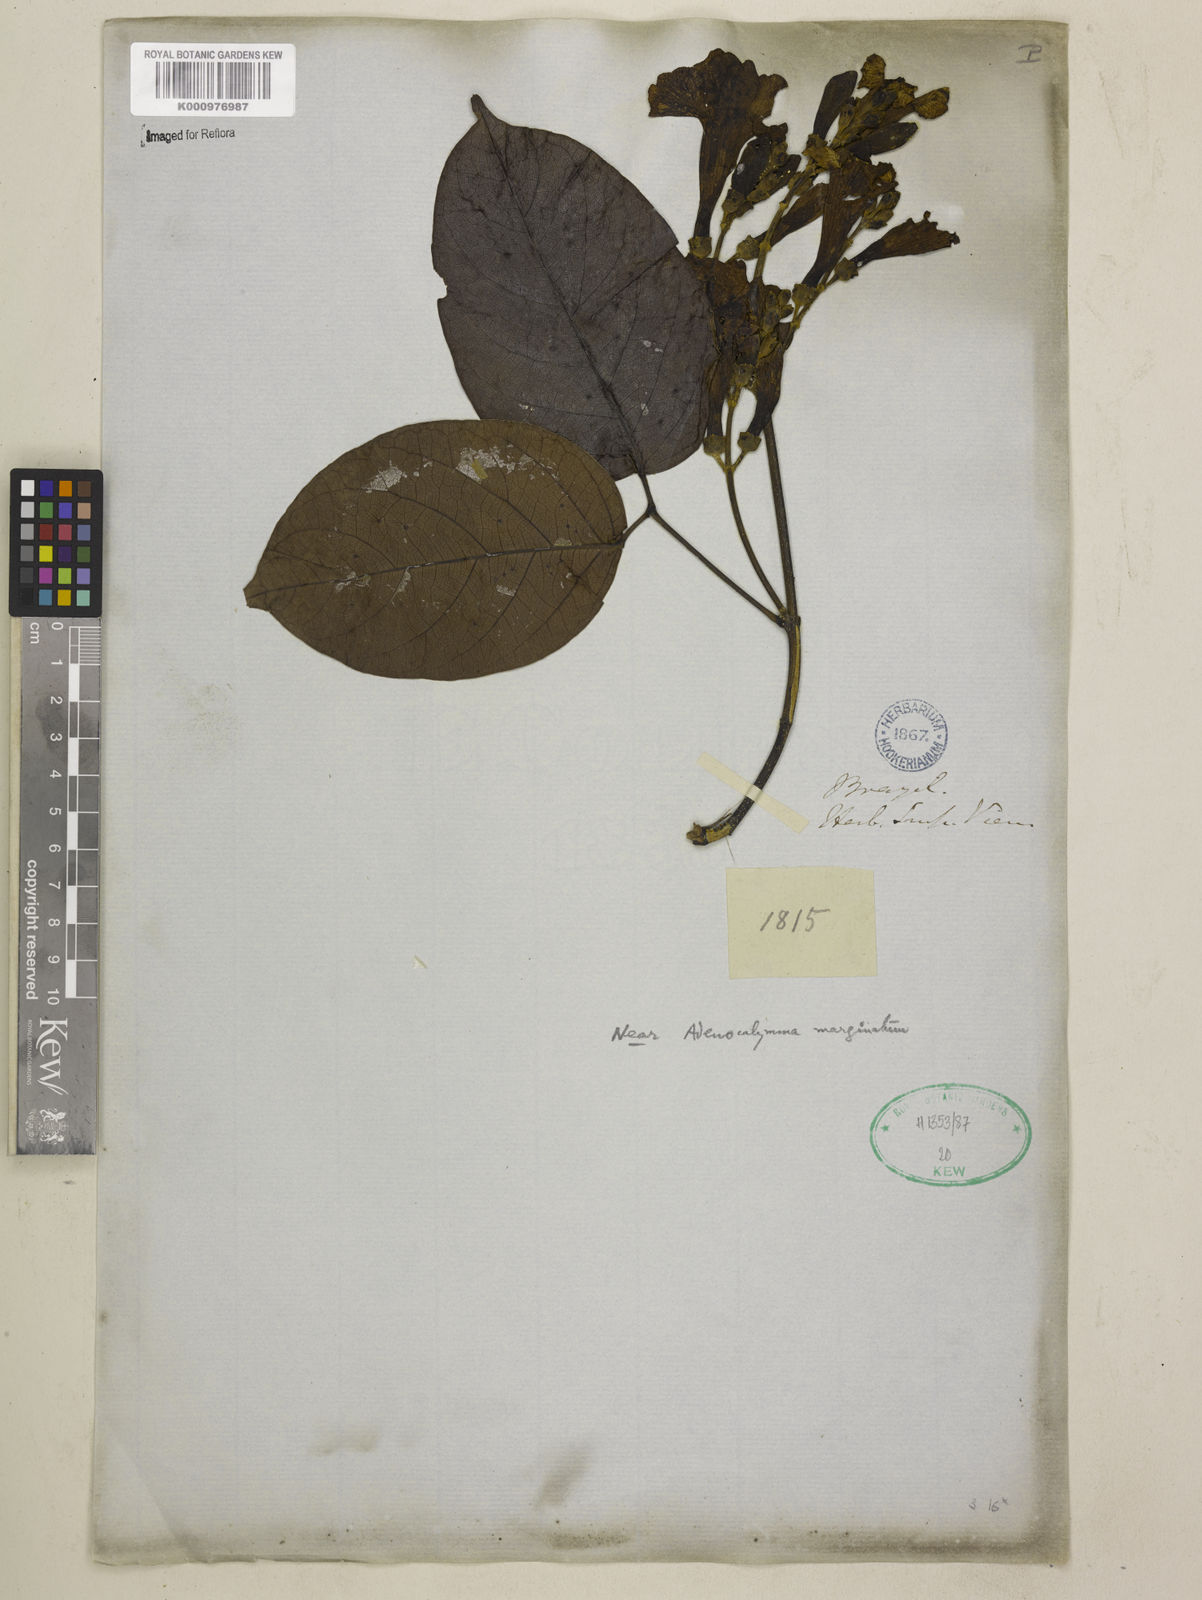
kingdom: Plantae
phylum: Tracheophyta
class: Magnoliopsida
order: Lamiales
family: Bignoniaceae
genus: Adenocalymma
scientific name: Adenocalymma marginatum
